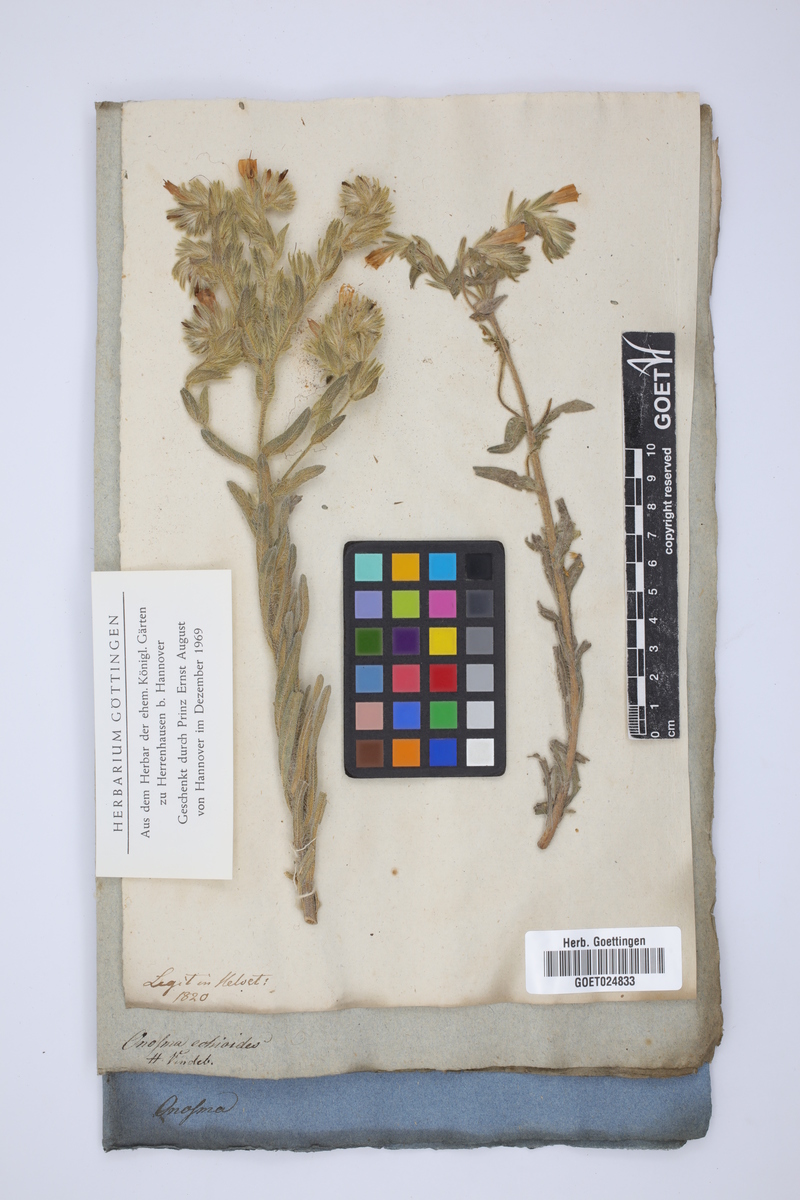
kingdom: Plantae
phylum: Tracheophyta
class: Magnoliopsida
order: Boraginales
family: Boraginaceae
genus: Onosma
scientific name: Onosma echioides
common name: Goldendrop
